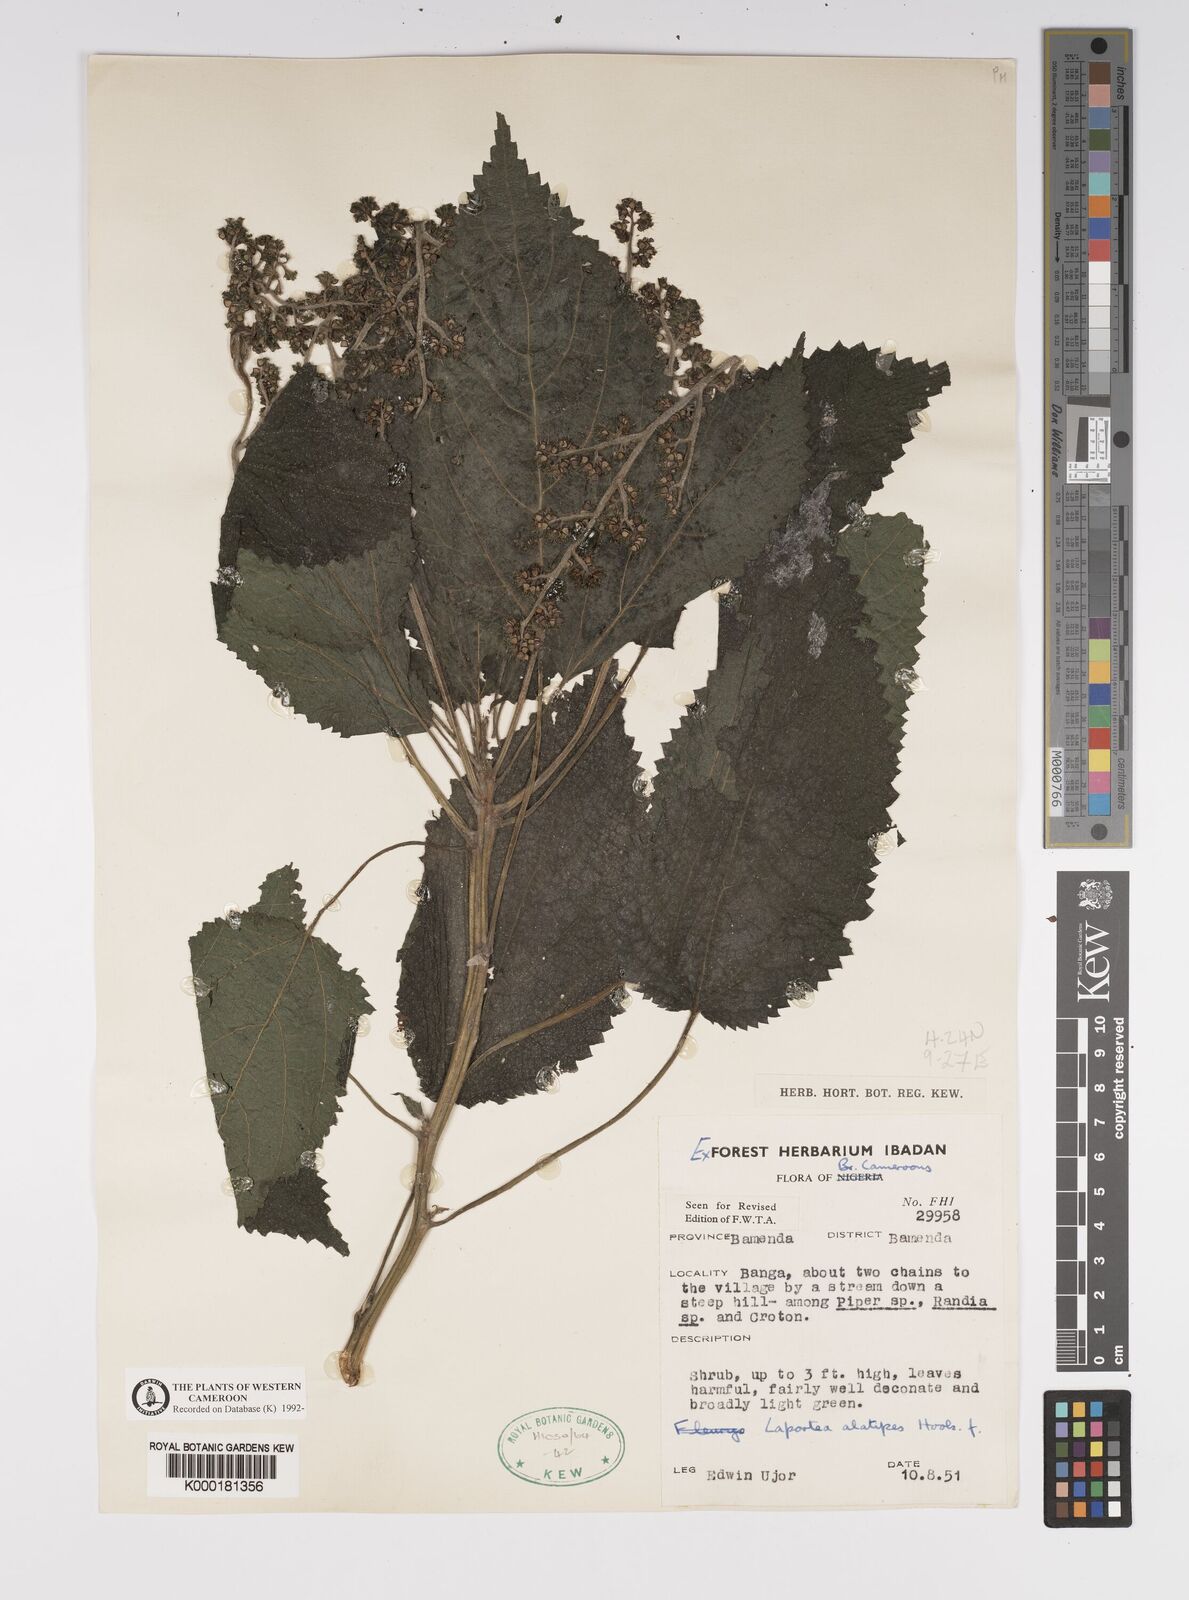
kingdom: Plantae
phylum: Tracheophyta
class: Magnoliopsida
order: Rosales
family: Urticaceae
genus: Laportea
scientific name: Laportea alatipes
